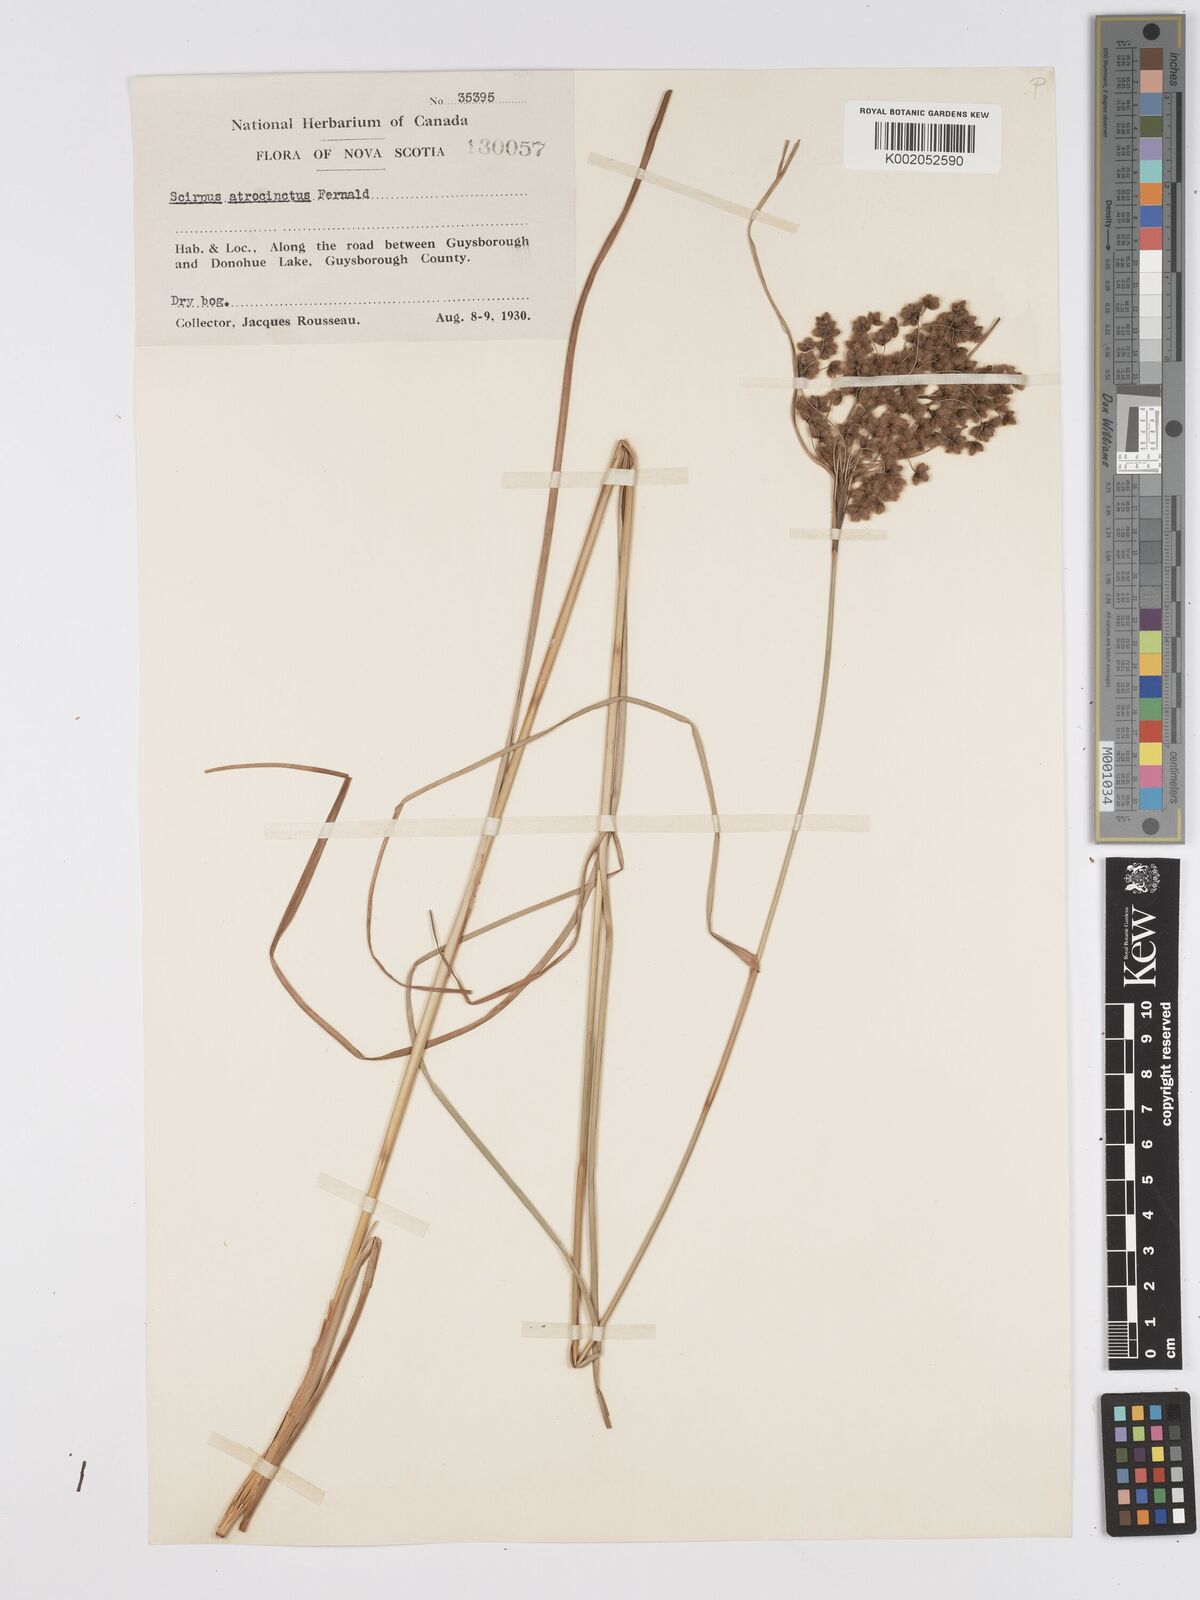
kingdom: Plantae
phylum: Tracheophyta
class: Liliopsida
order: Poales
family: Cyperaceae
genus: Scirpus
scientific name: Scirpus atrocinctus
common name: Black-girdled bulrush
